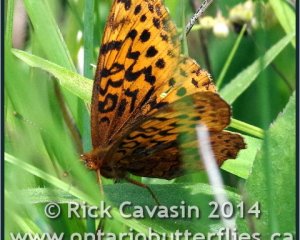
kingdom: Animalia
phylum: Arthropoda
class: Insecta
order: Lepidoptera
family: Nymphalidae
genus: Clossiana
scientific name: Clossiana toddi
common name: Meadow Fritillary
